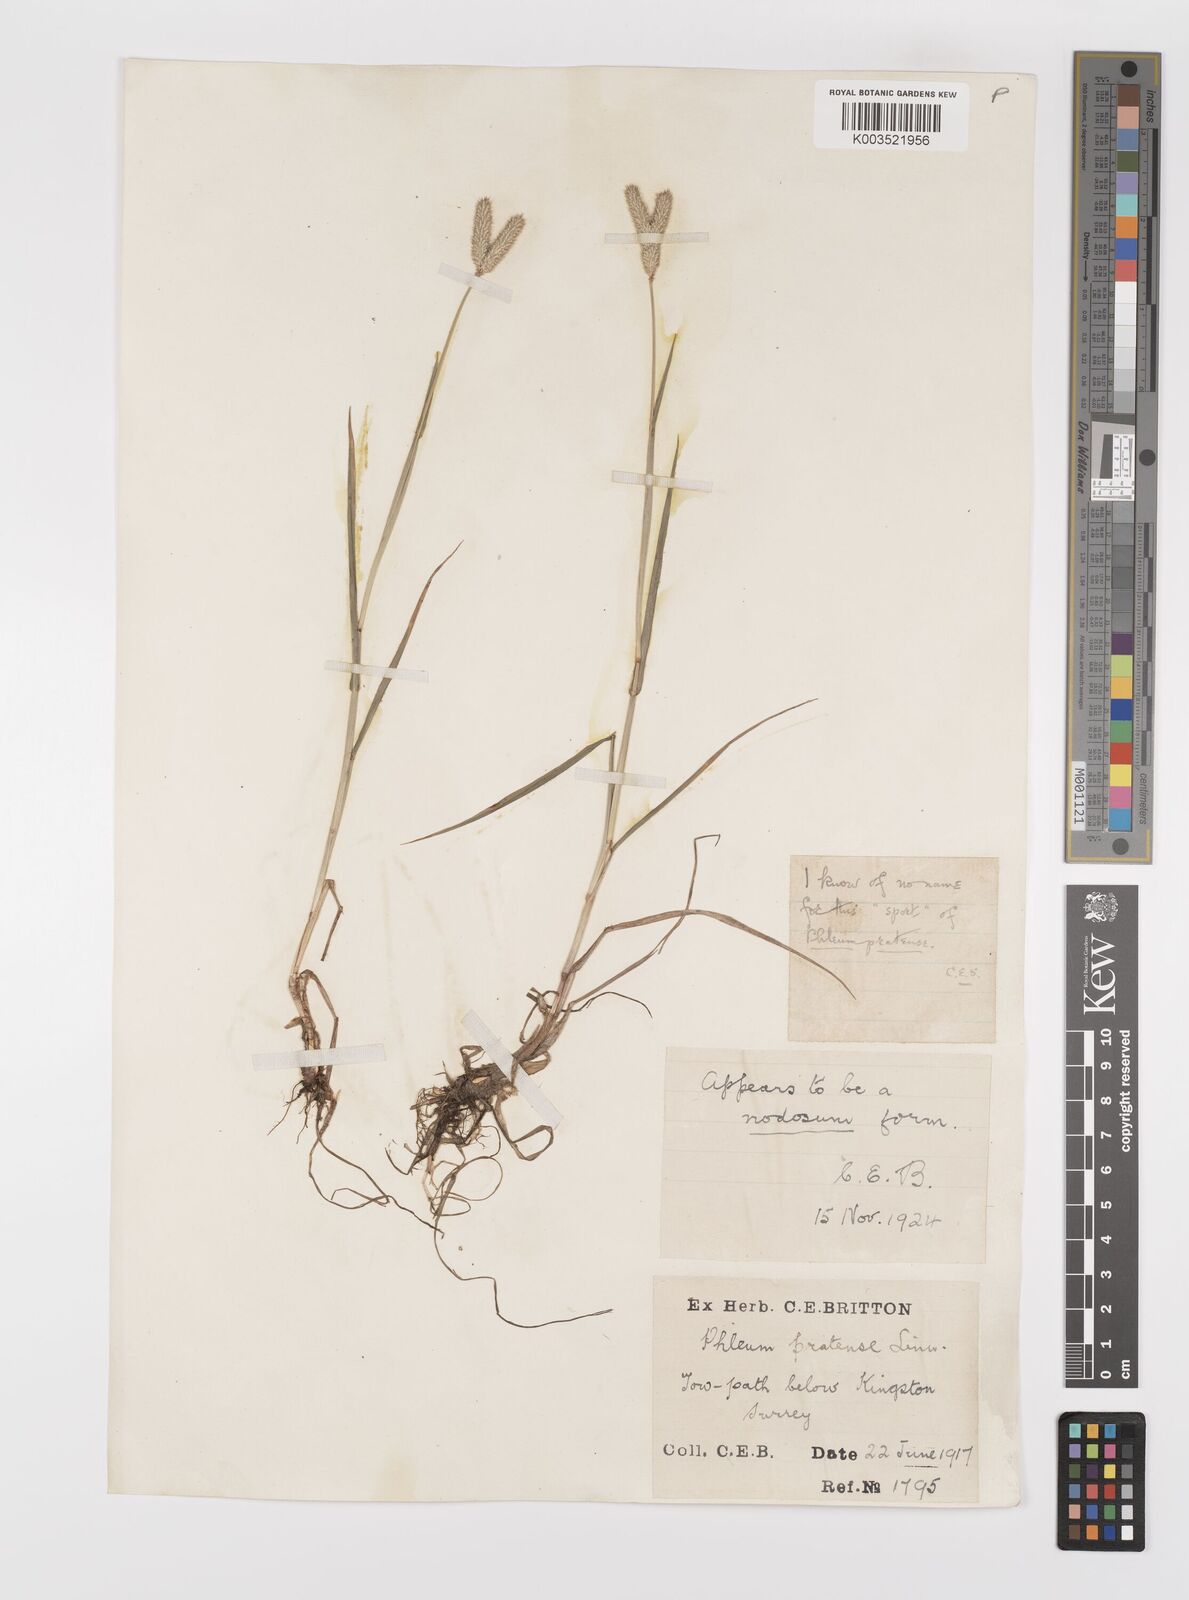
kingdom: Plantae
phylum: Tracheophyta
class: Liliopsida
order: Poales
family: Poaceae
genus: Phleum
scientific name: Phleum bertolonii
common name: Smaller cat's-tail
